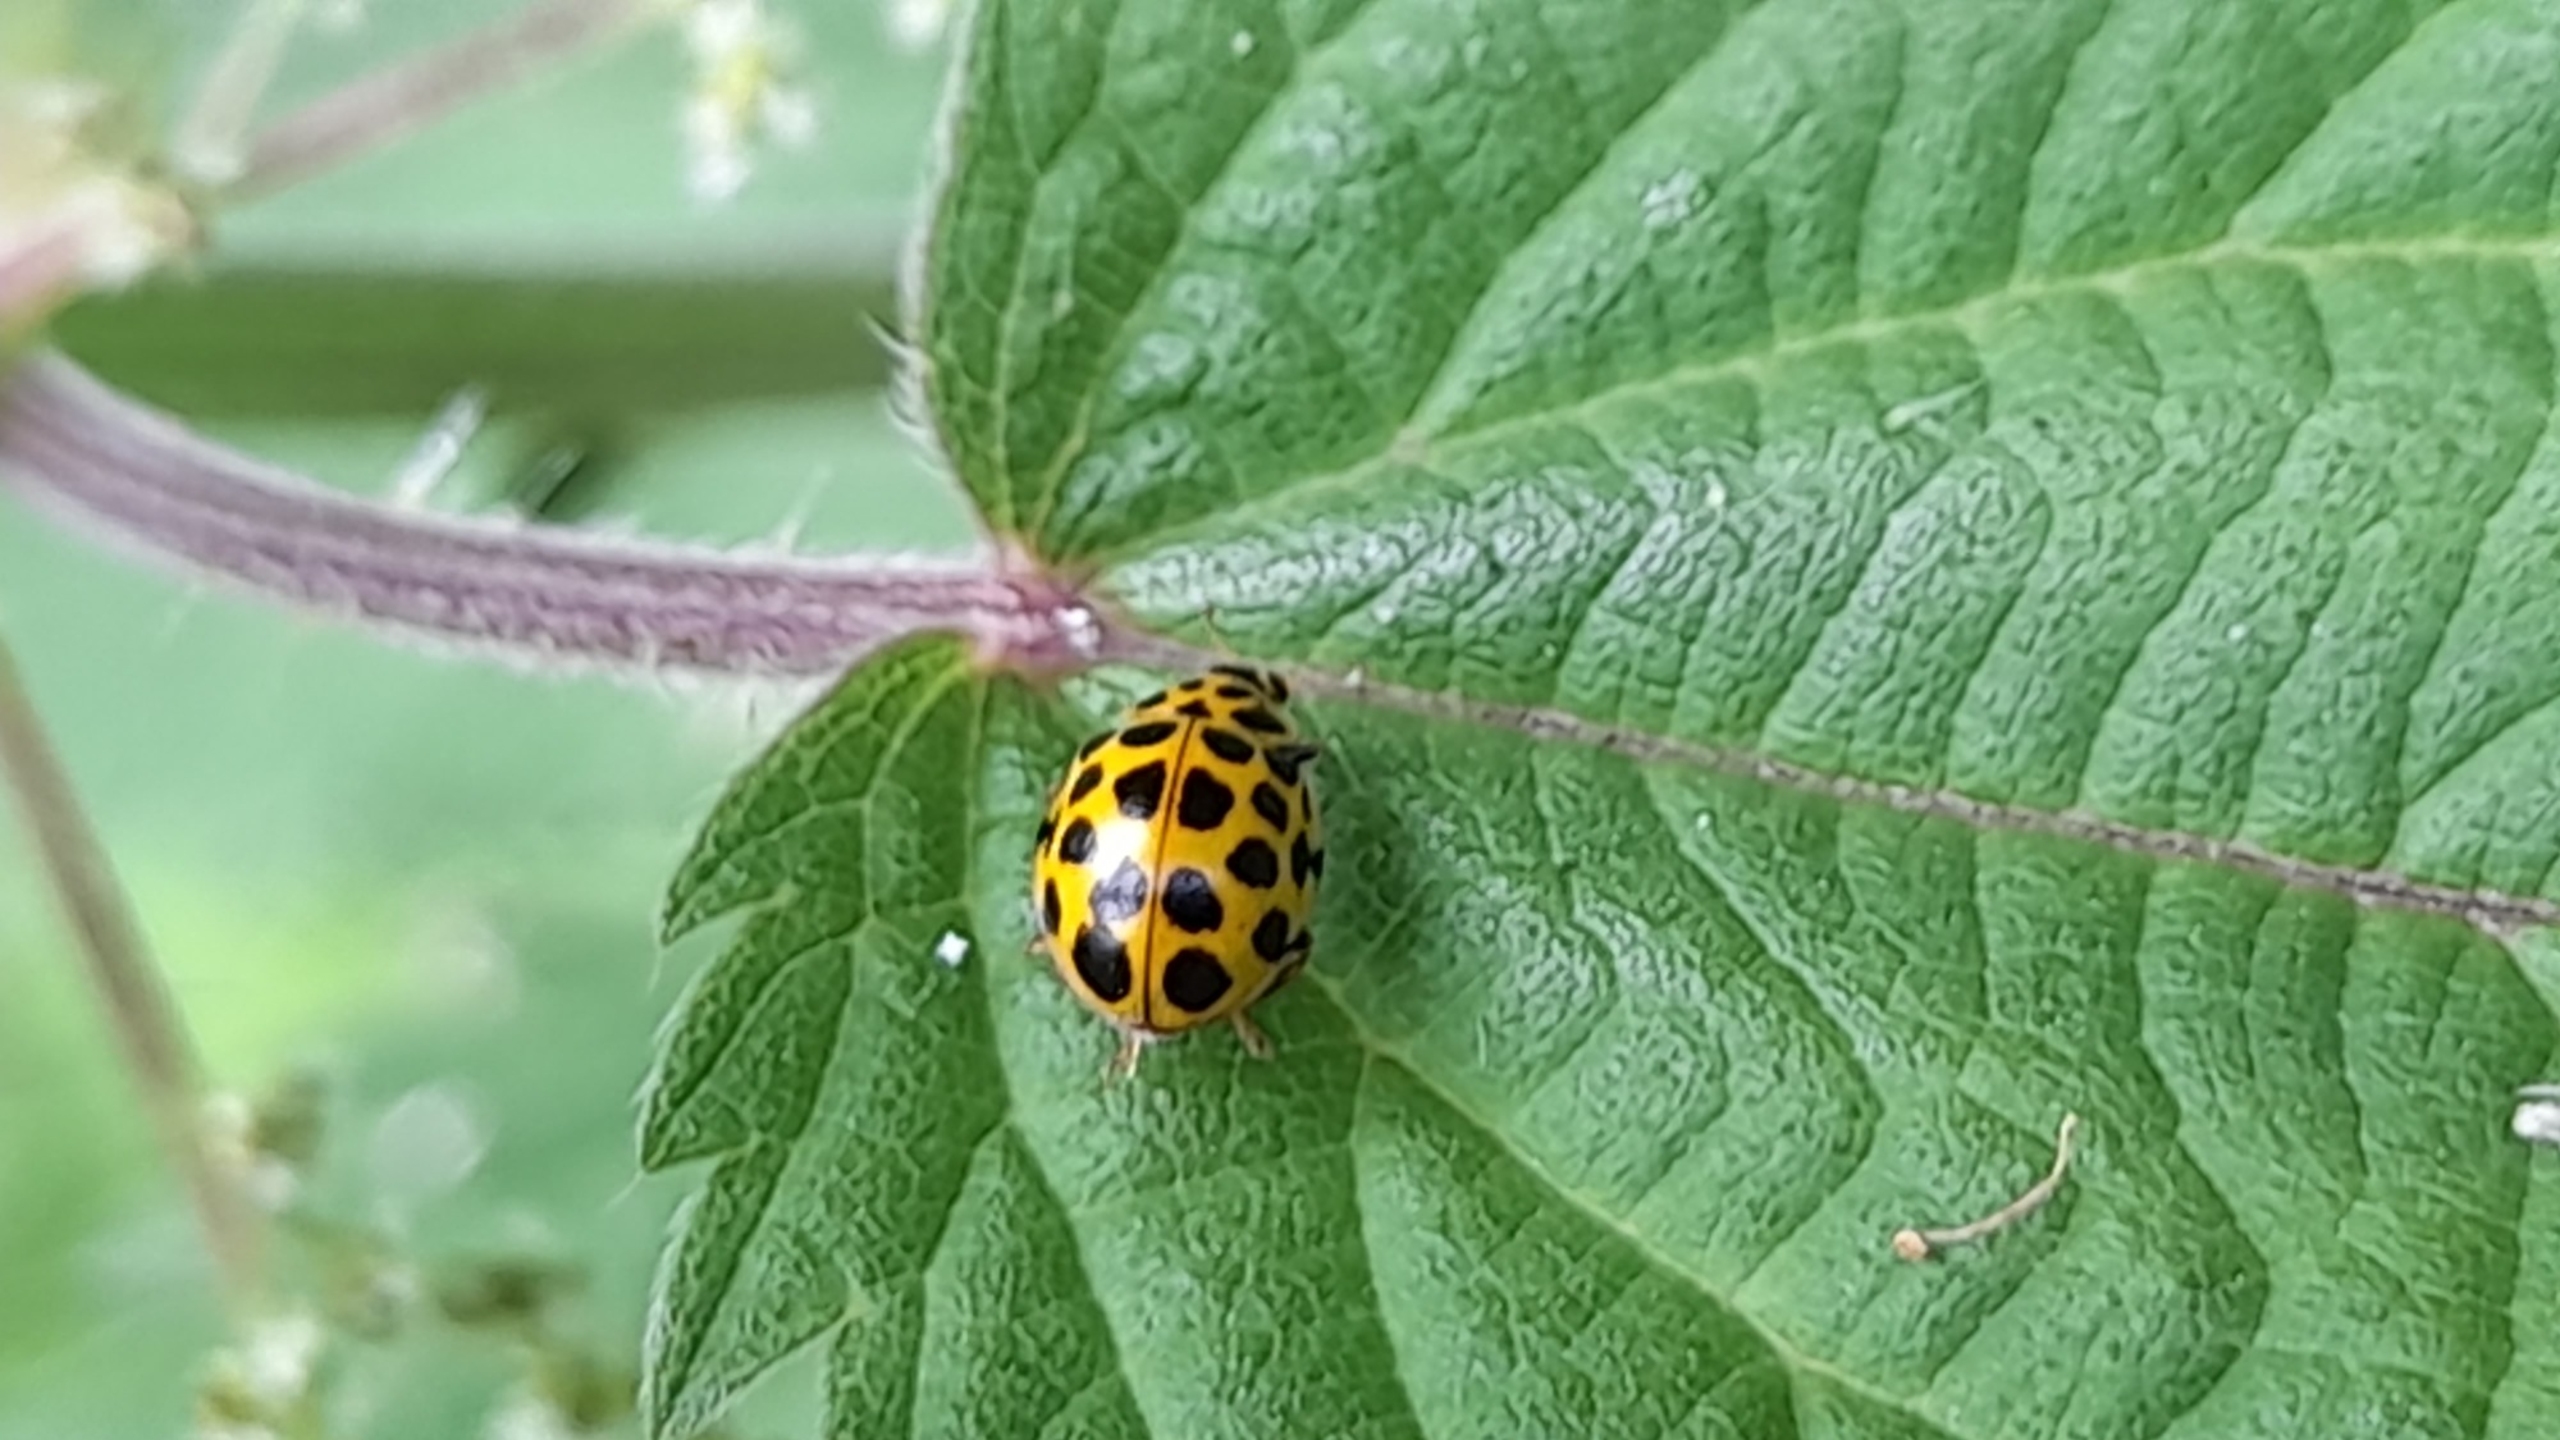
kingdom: Animalia
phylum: Arthropoda
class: Insecta
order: Coleoptera
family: Coccinellidae
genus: Psyllobora
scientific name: Psyllobora vigintiduopunctata
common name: Toogtyveplettet mariehøne
